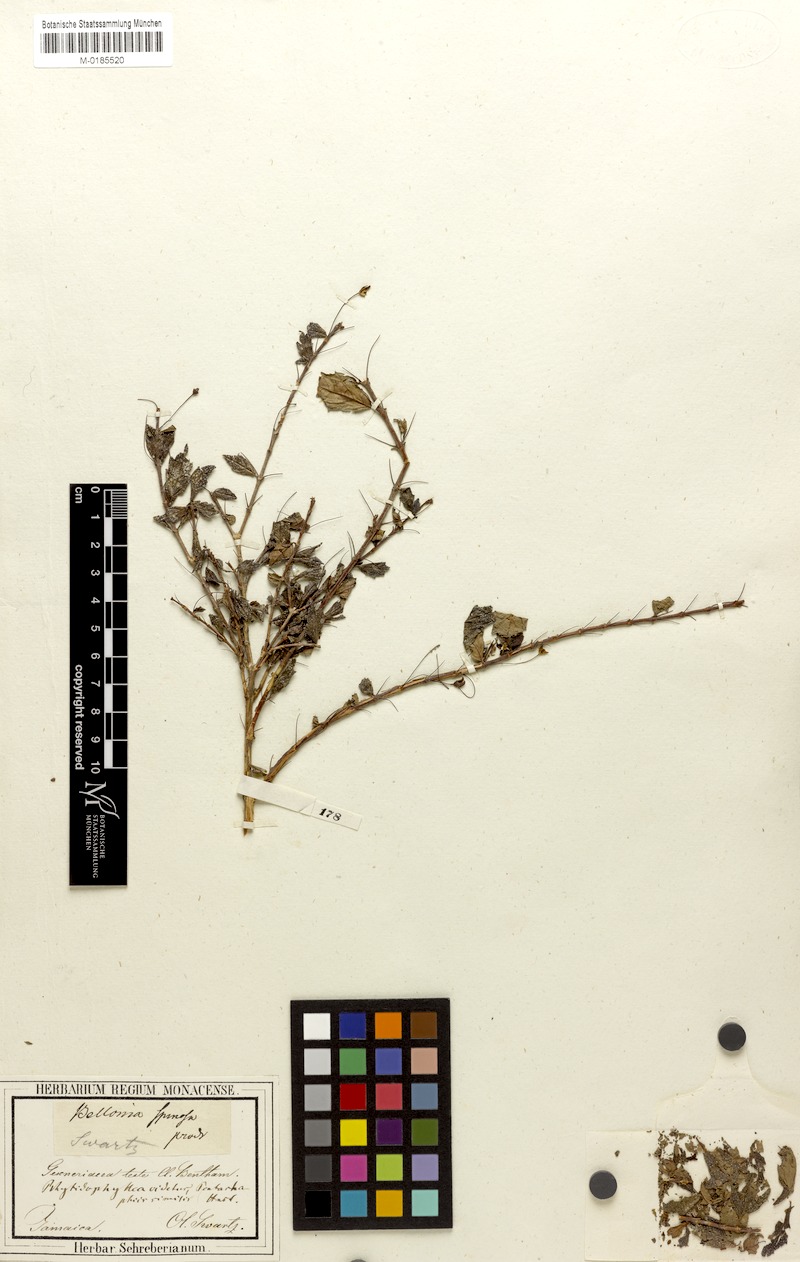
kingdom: Plantae
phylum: Tracheophyta
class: Magnoliopsida
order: Lamiales
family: Gesneriaceae
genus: Bellonia
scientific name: Bellonia spinosa
